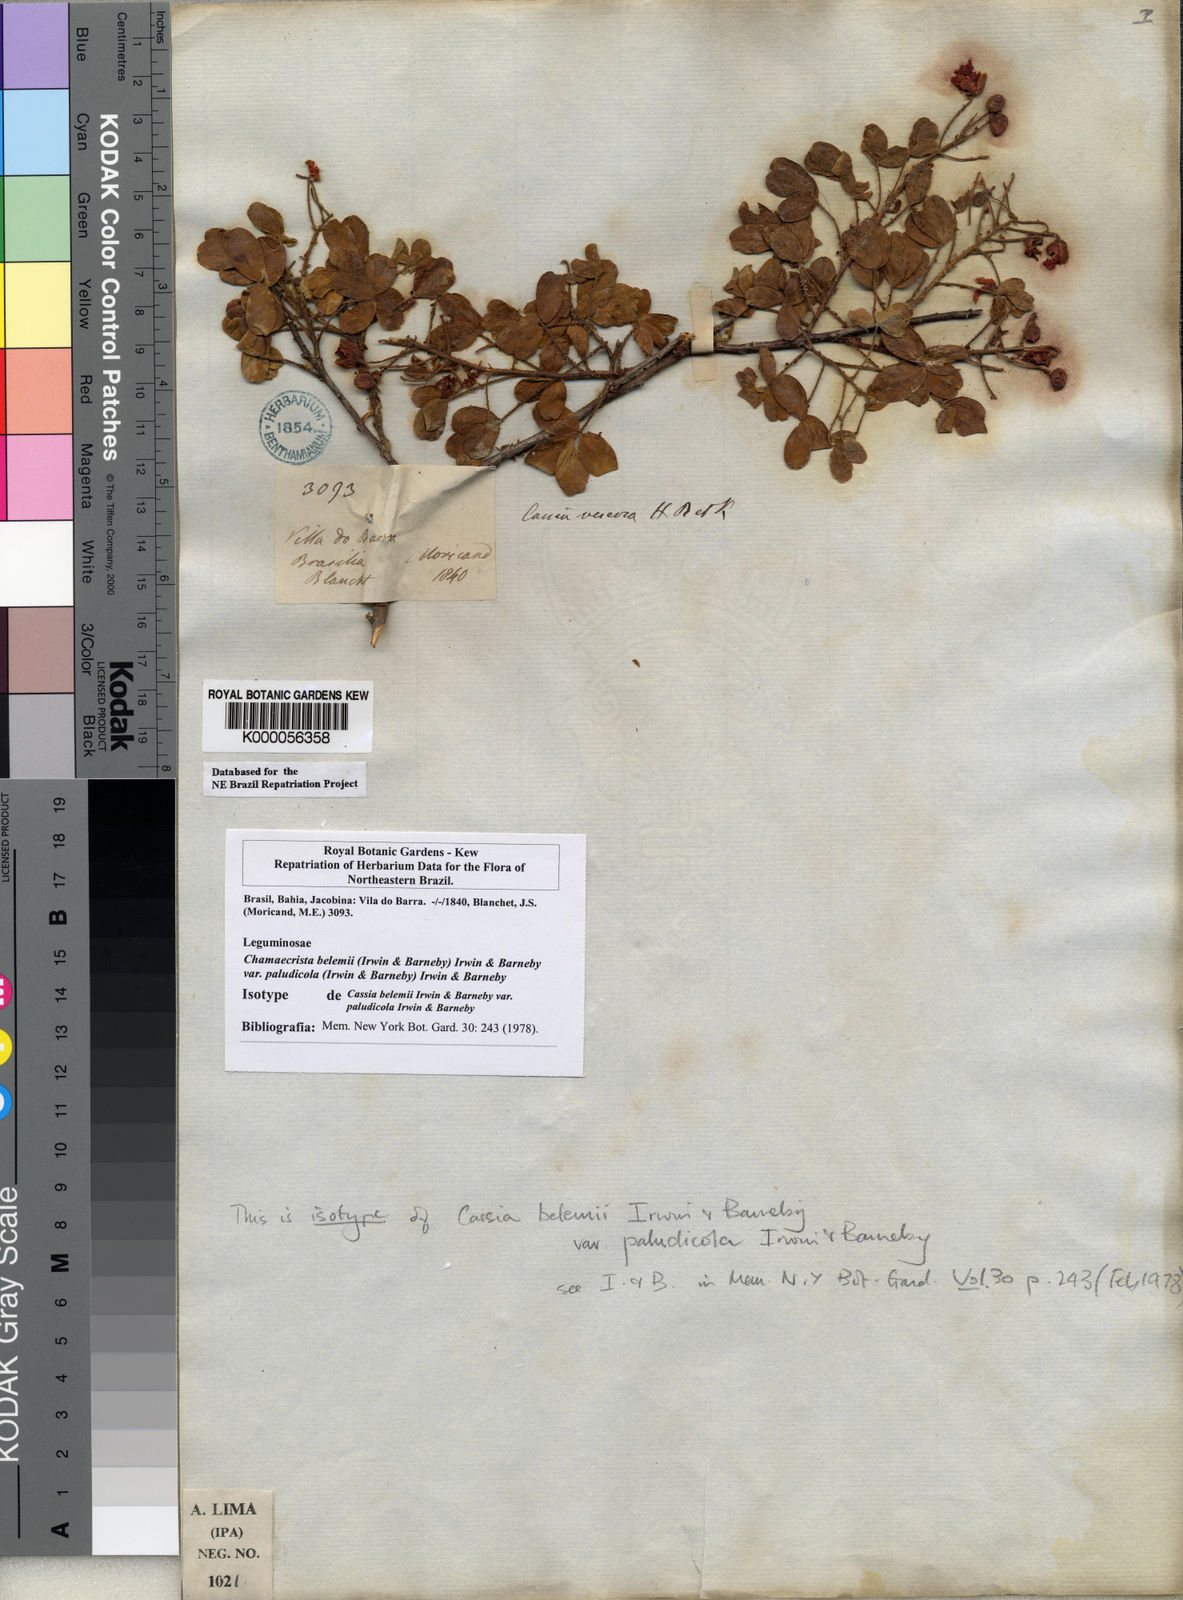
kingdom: Plantae
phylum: Tracheophyta
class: Magnoliopsida
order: Fabales
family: Fabaceae
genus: Chamaecrista
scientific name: Chamaecrista belemii
